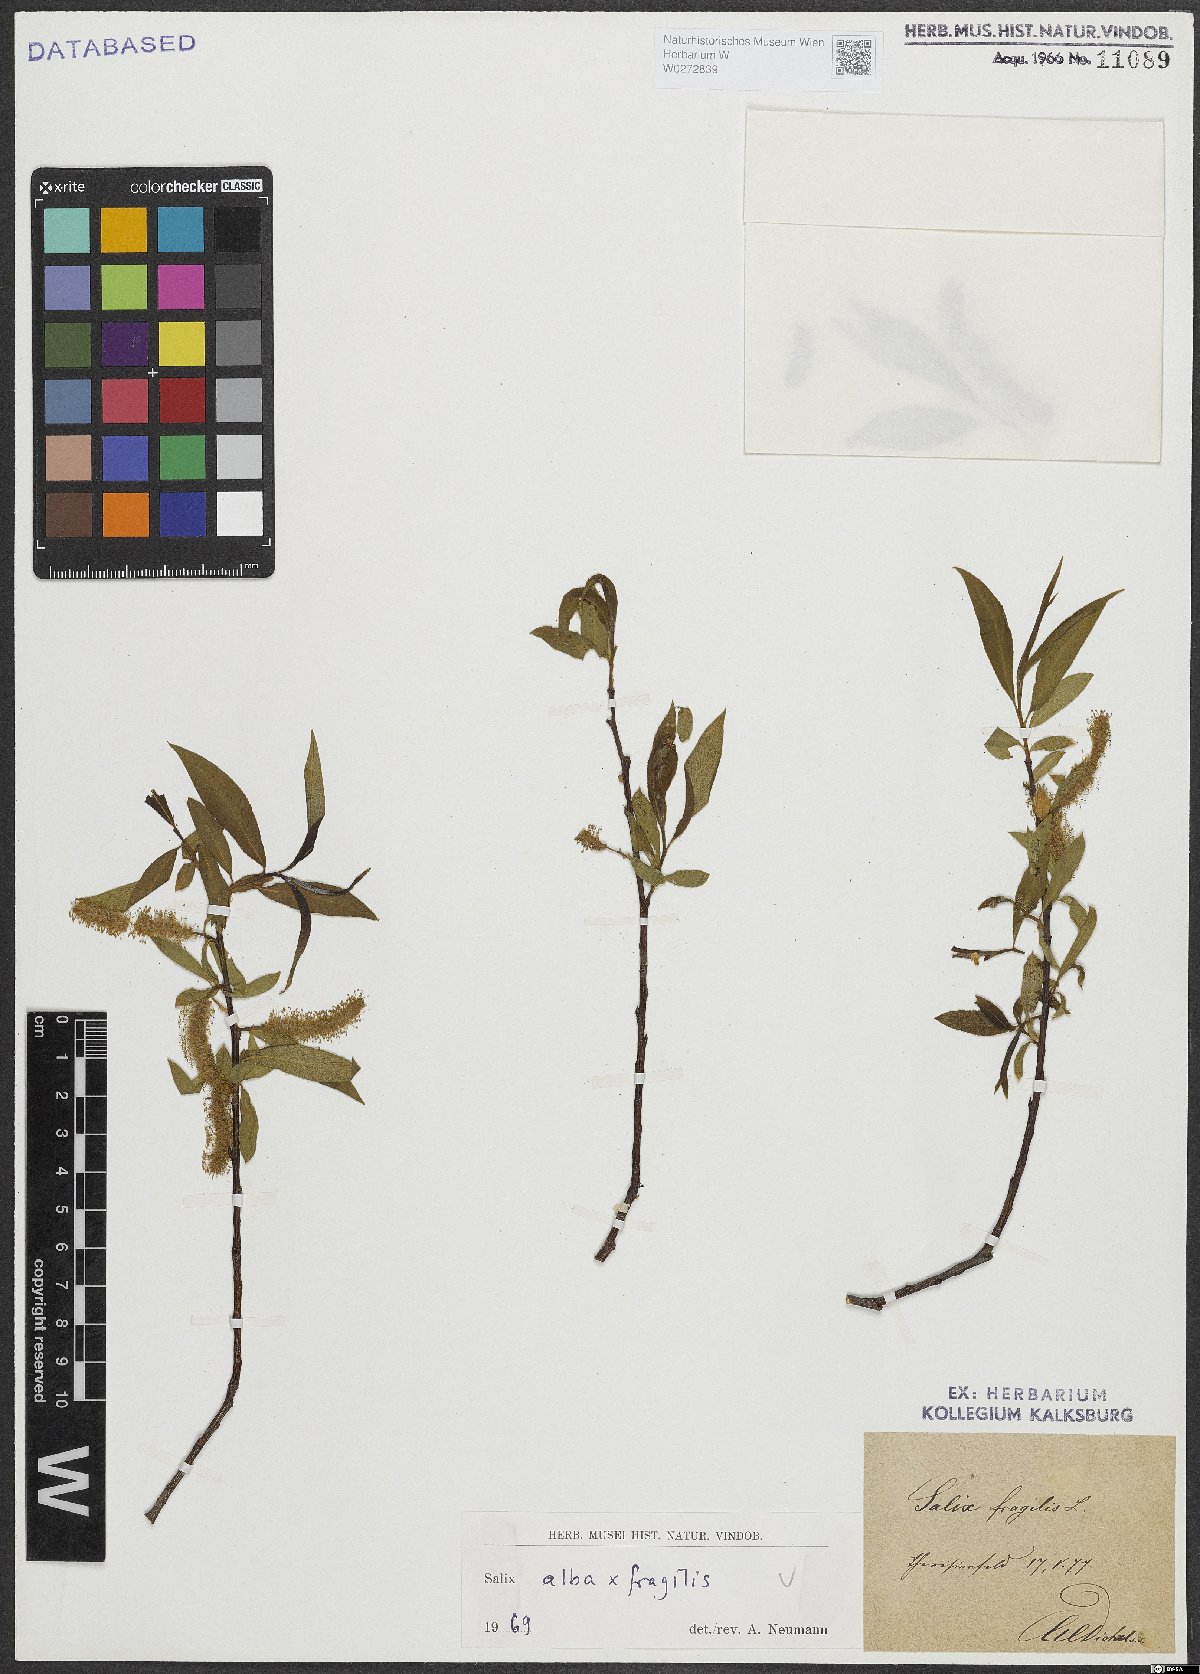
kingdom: Plantae
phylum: Tracheophyta
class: Magnoliopsida
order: Malpighiales
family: Salicaceae
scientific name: Salicaceae
